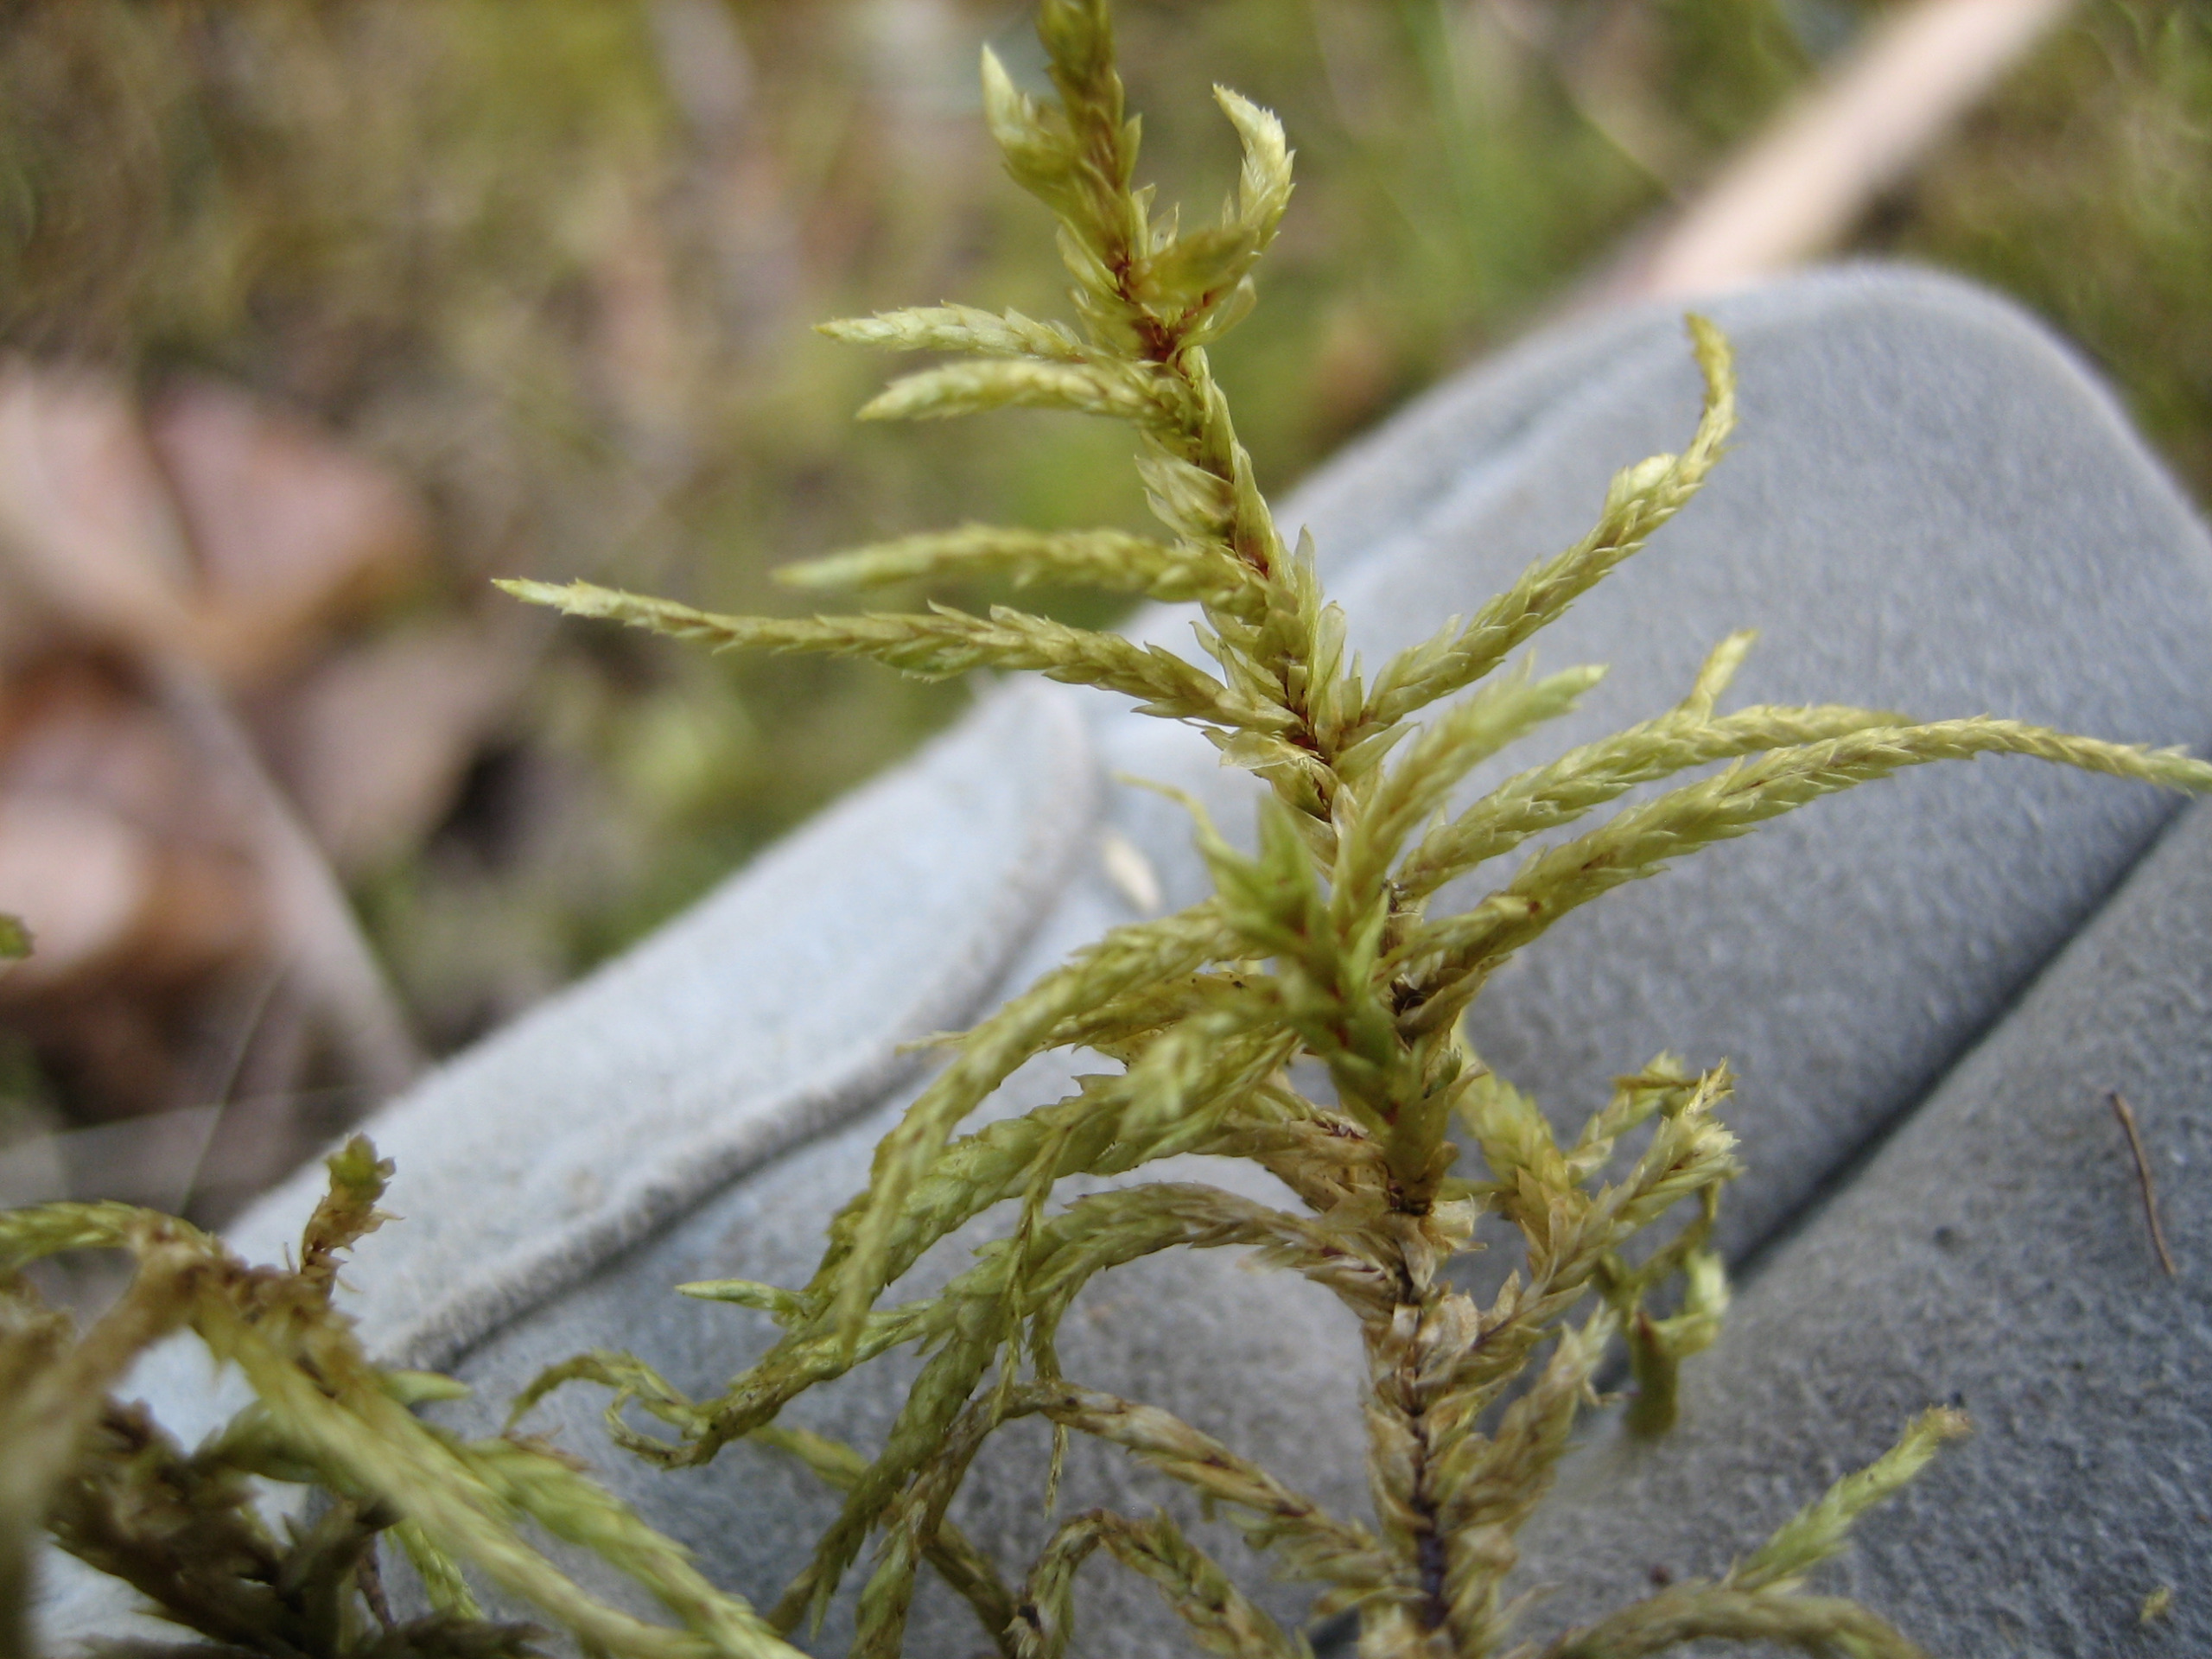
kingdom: Plantae
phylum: Bryophyta
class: Bryopsida
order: Hypnales
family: Hylocomiaceae
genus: Pleurozium
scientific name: Pleurozium schreberi
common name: Trind fyrremos
